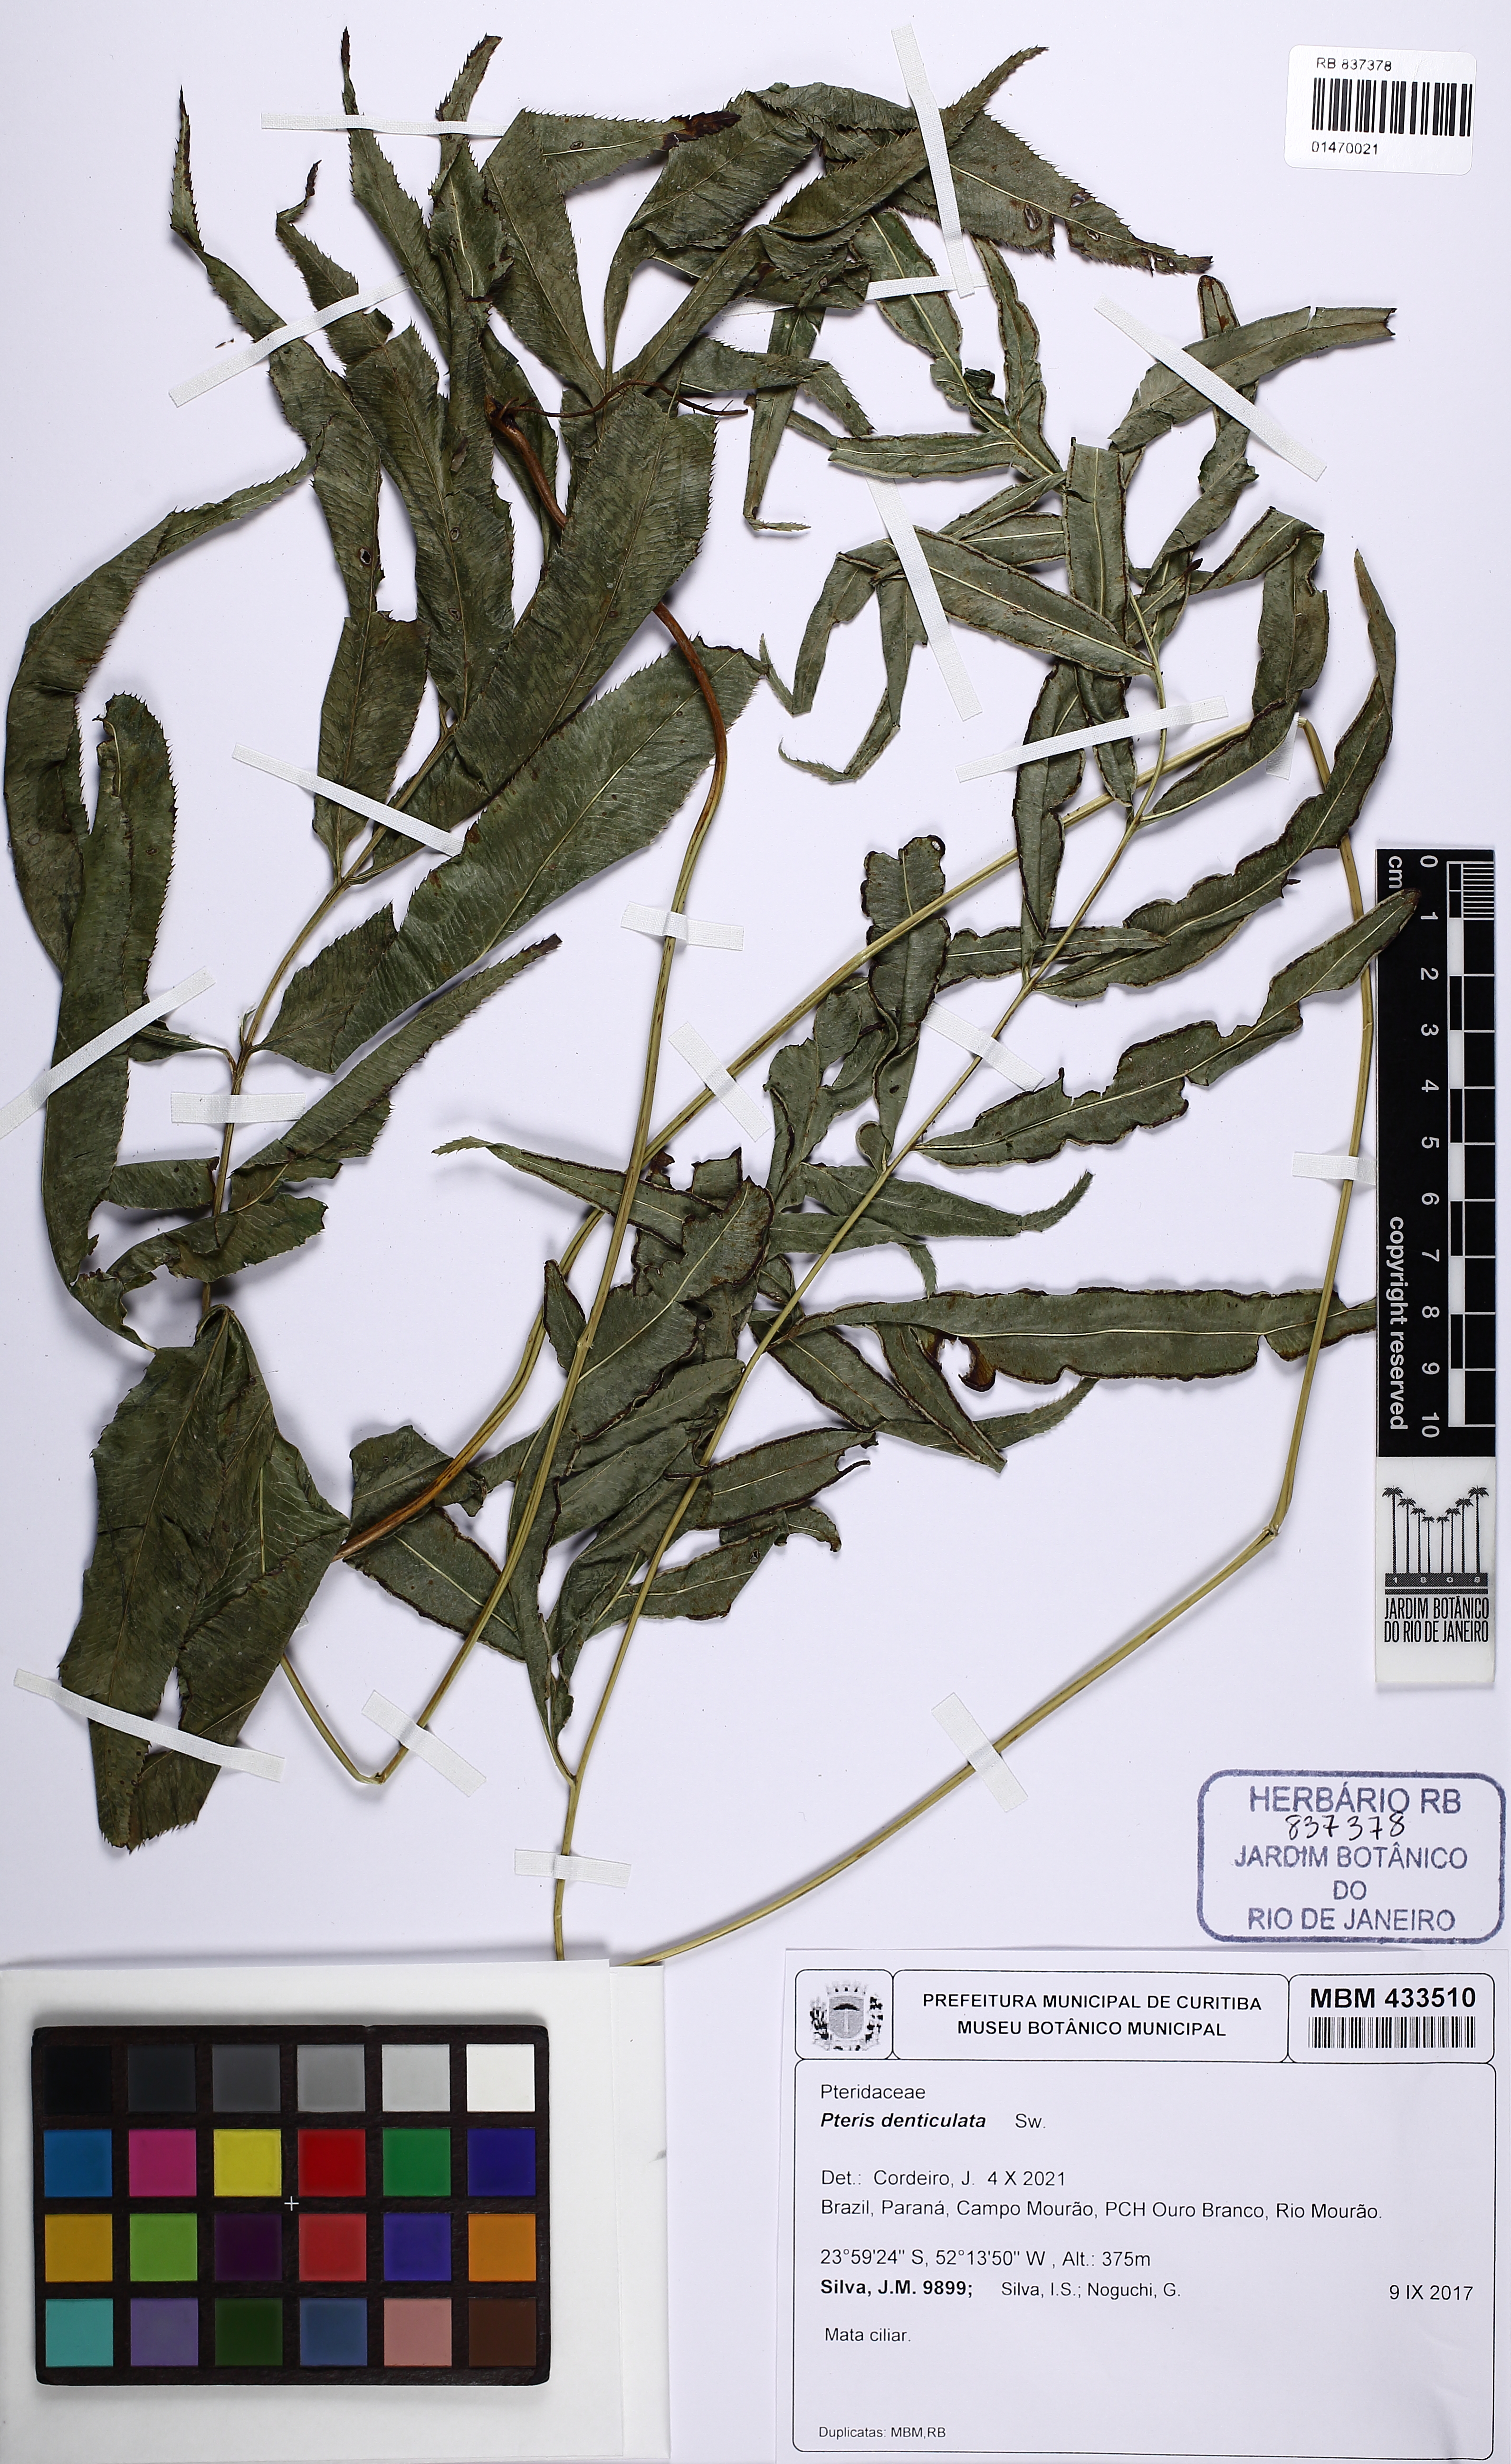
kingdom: Plantae
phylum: Tracheophyta
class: Polypodiopsida
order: Polypodiales
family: Pteridaceae
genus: Pteris
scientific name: Pteris denticulata
